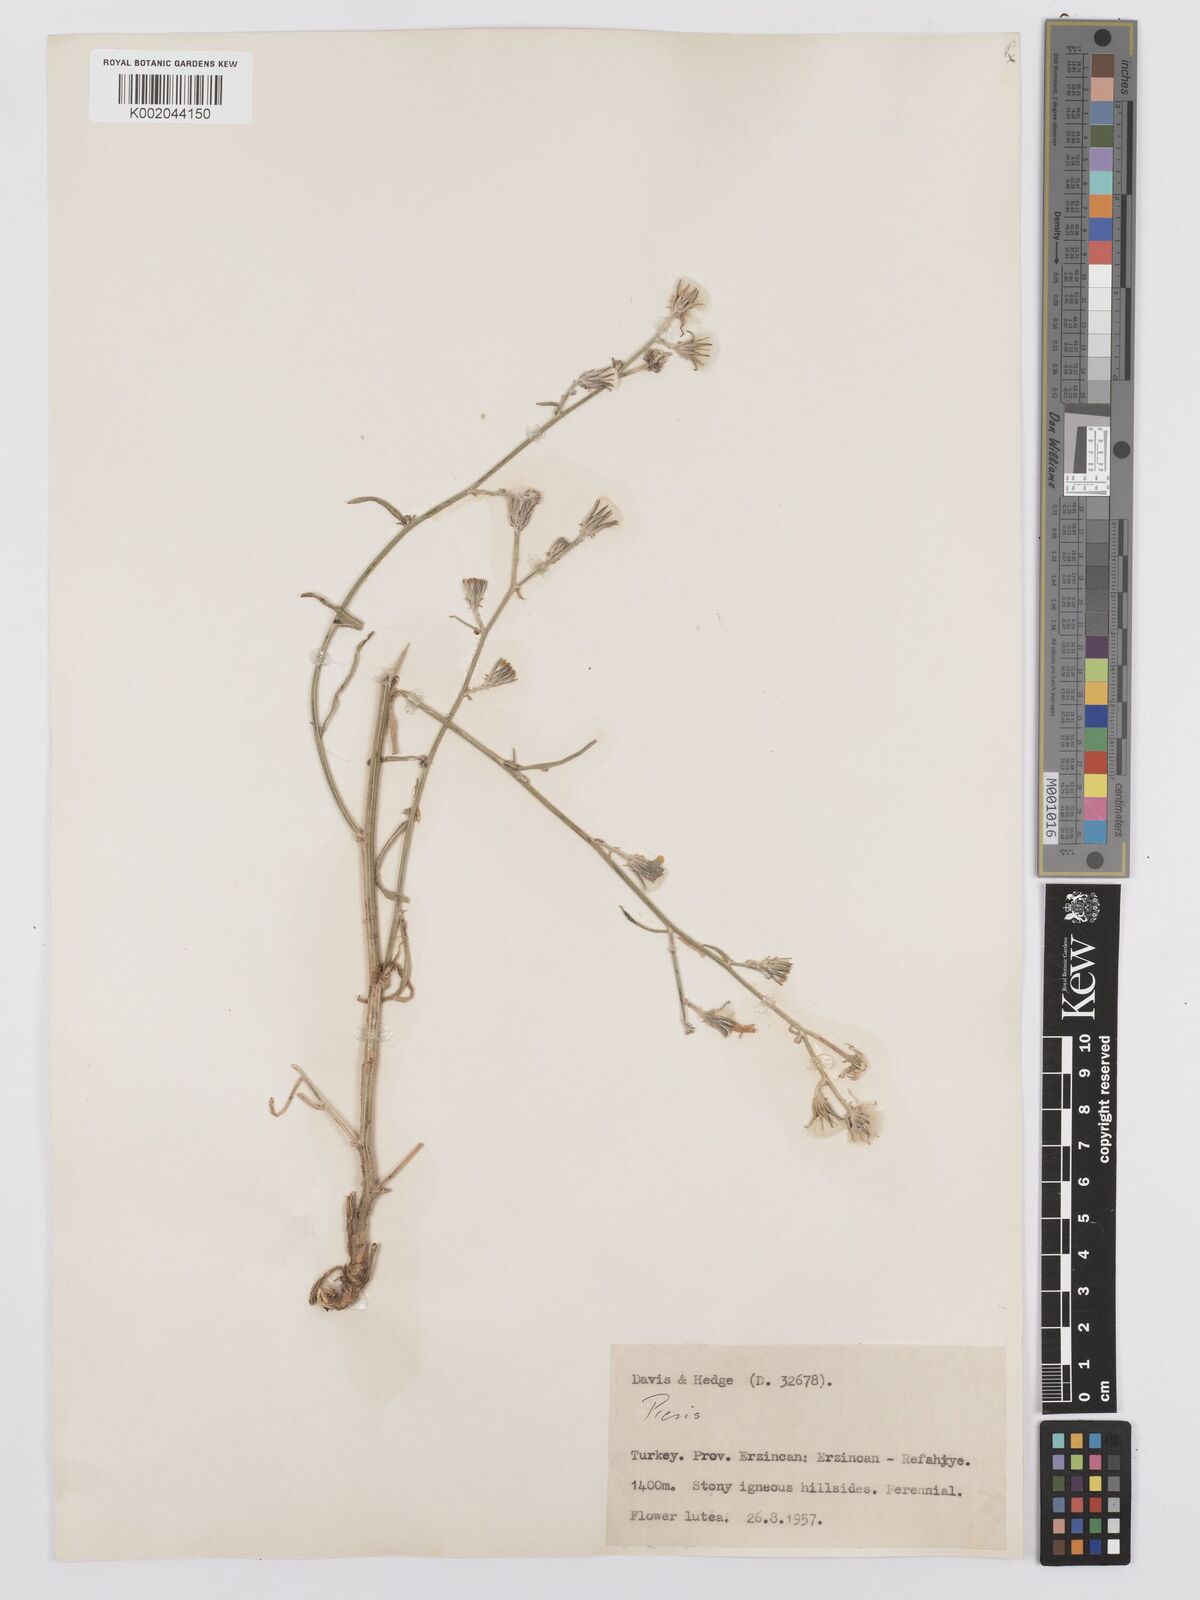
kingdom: Plantae
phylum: Tracheophyta
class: Magnoliopsida
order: Asterales
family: Asteraceae
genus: Picris
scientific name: Picris
